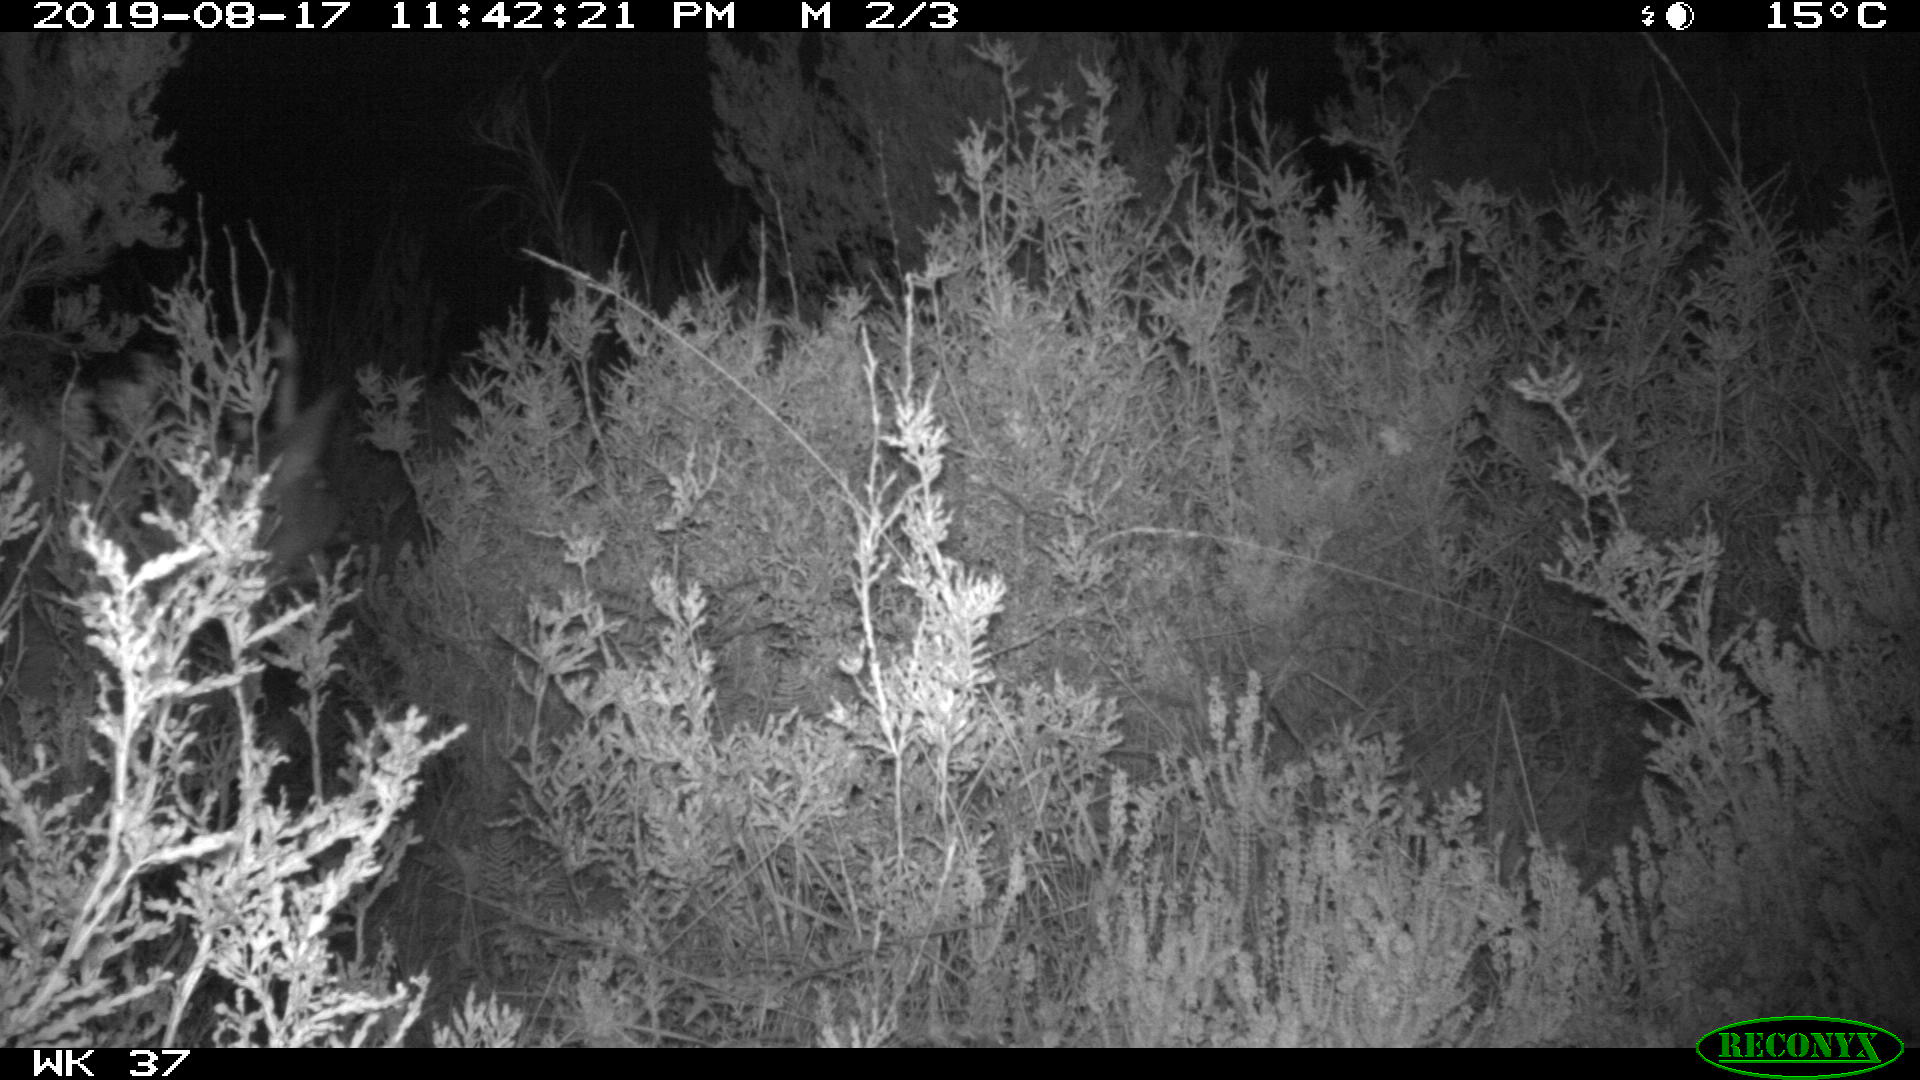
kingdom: Animalia
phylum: Chordata
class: Mammalia
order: Artiodactyla
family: Cervidae
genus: Capreolus
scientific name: Capreolus capreolus
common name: Western roe deer
